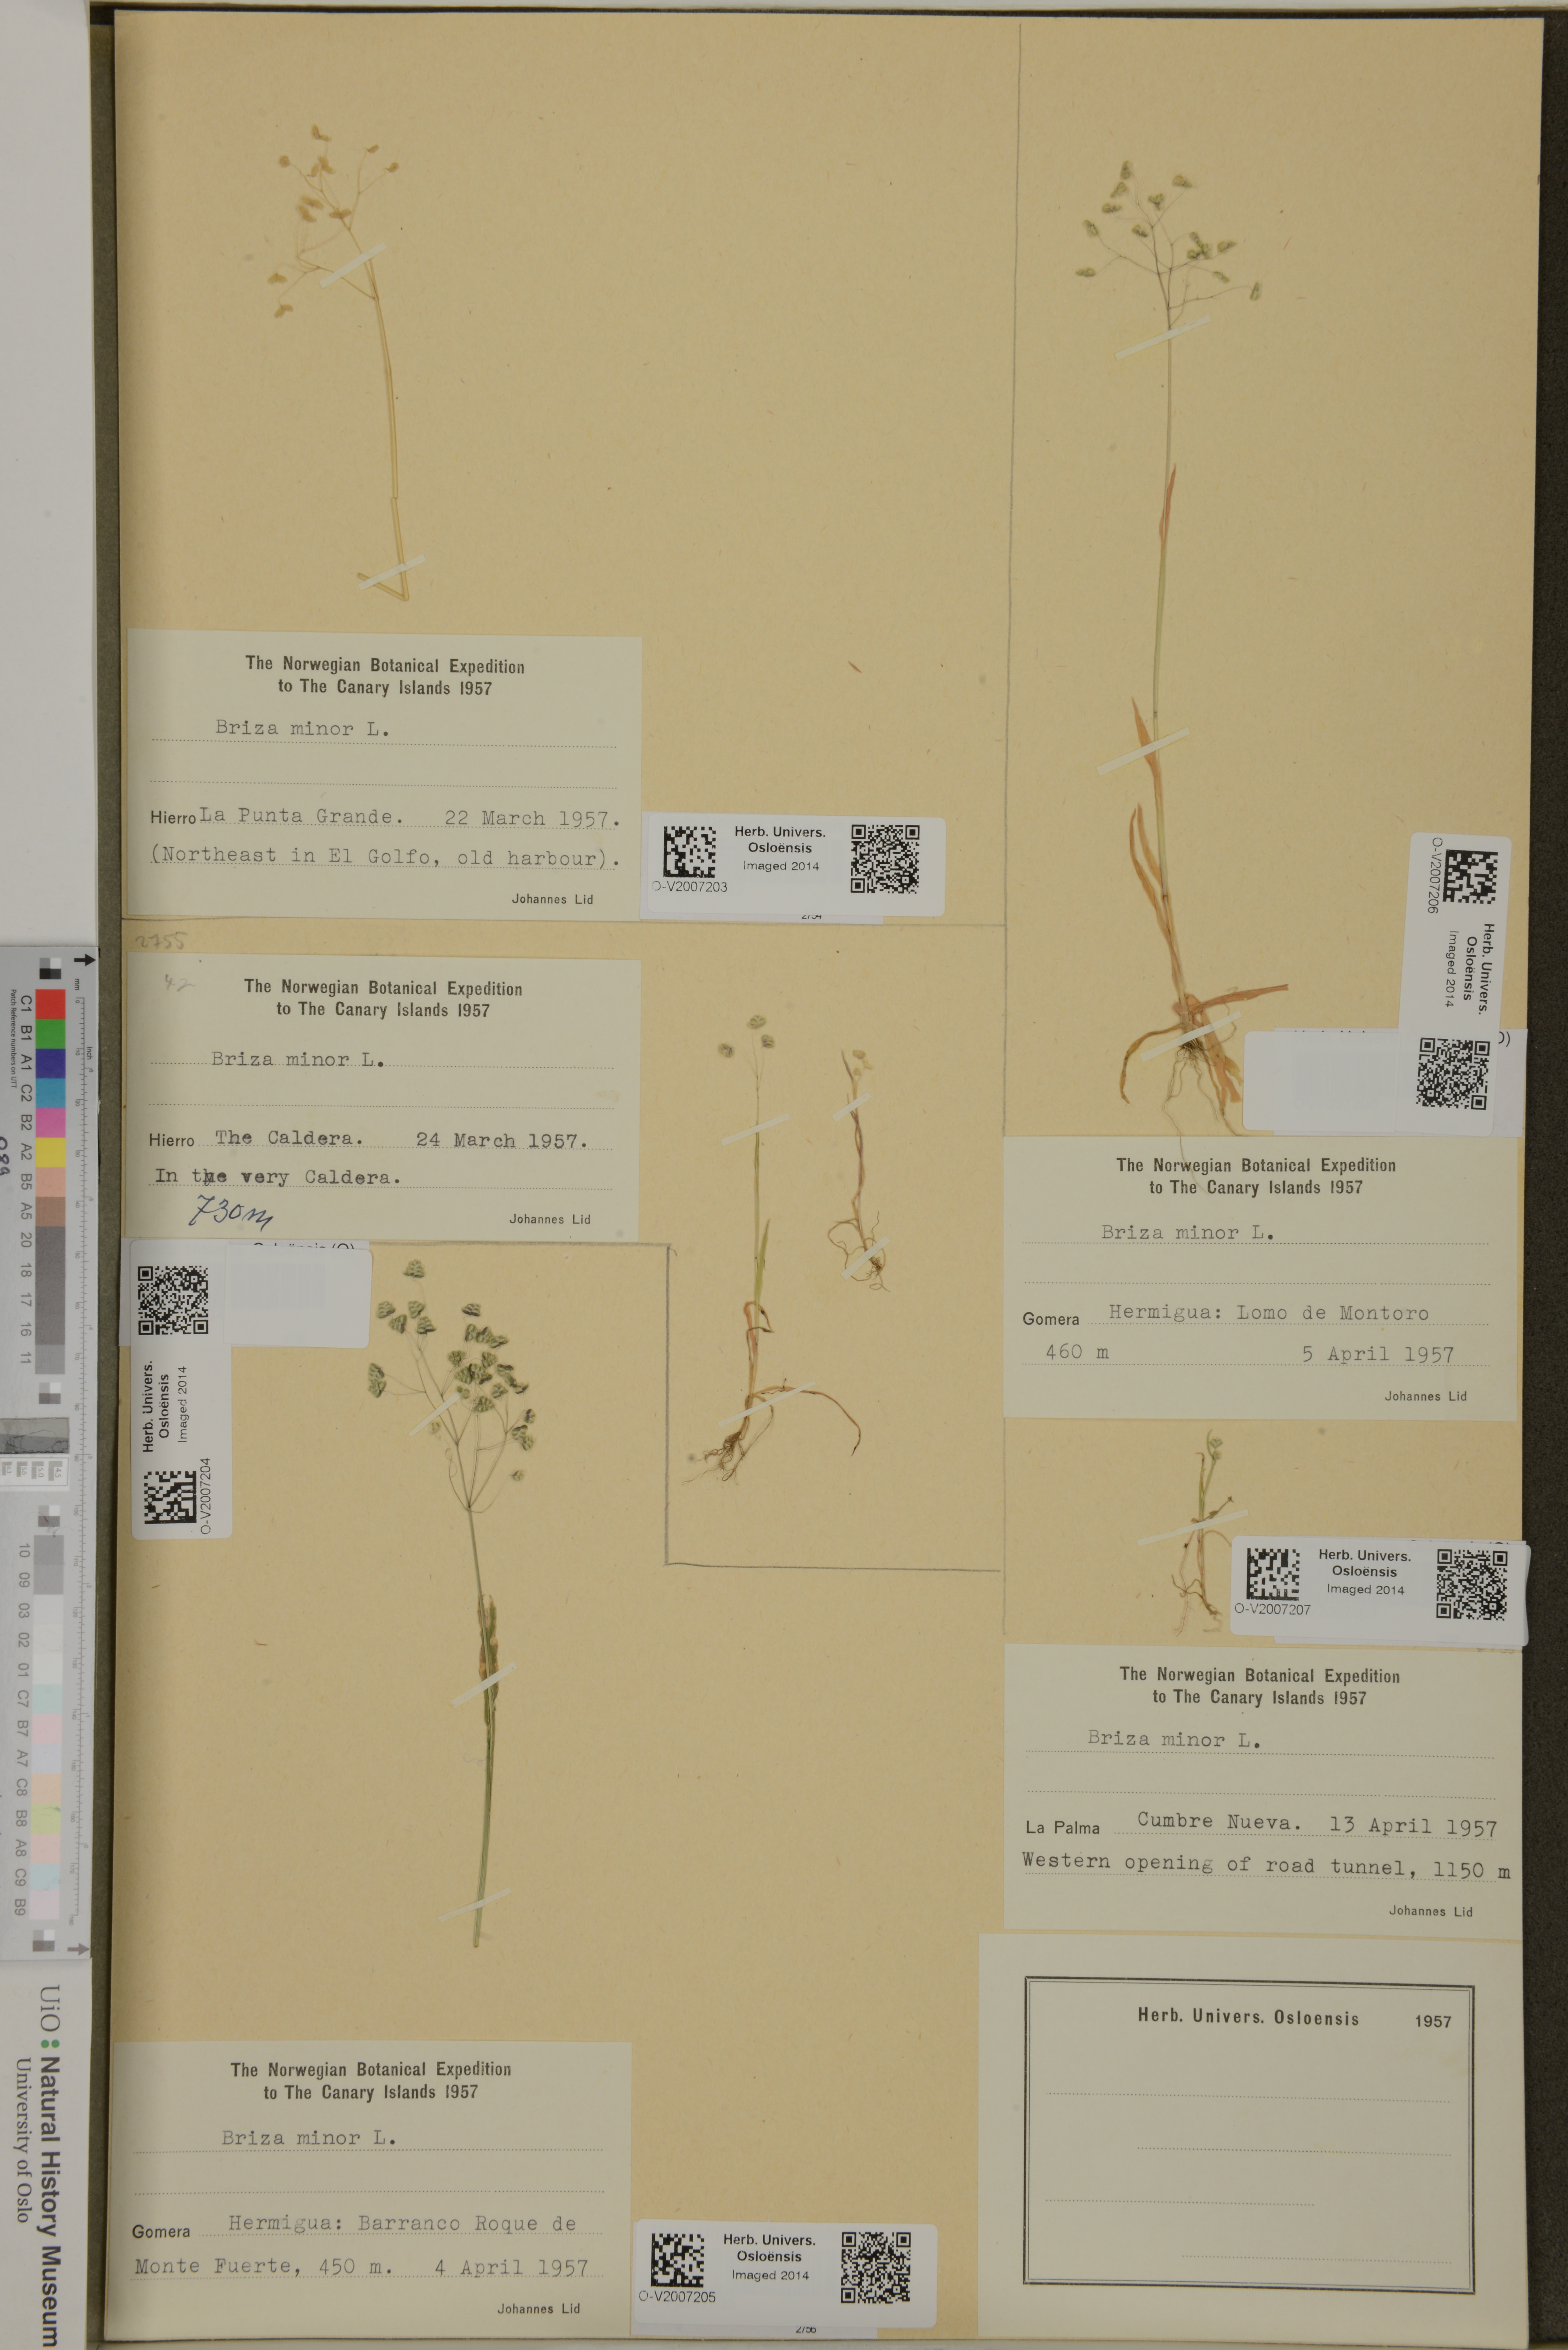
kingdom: Plantae
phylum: Tracheophyta
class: Liliopsida
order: Poales
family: Poaceae
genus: Briza
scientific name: Briza minor
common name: Lesser quaking-grass
